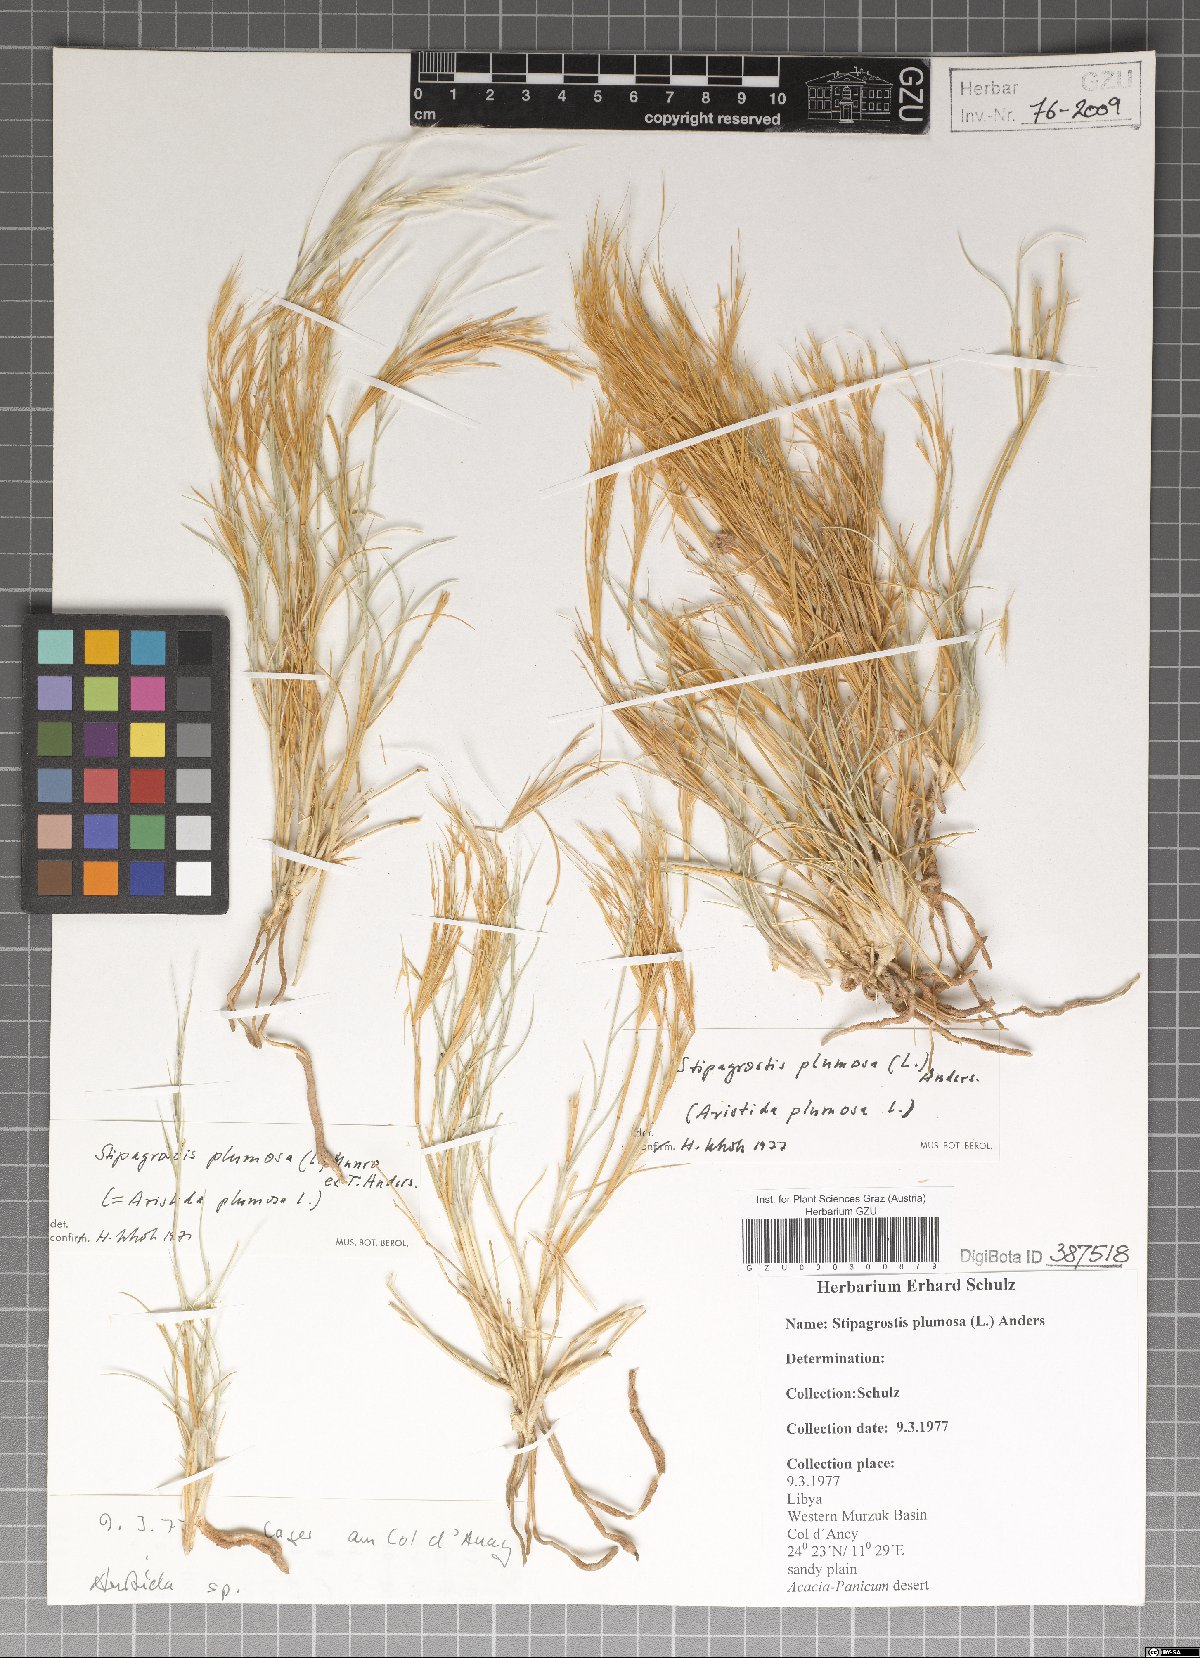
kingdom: Plantae
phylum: Tracheophyta
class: Liliopsida
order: Poales
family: Poaceae
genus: Stipagrostis
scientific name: Stipagrostis plumosa
